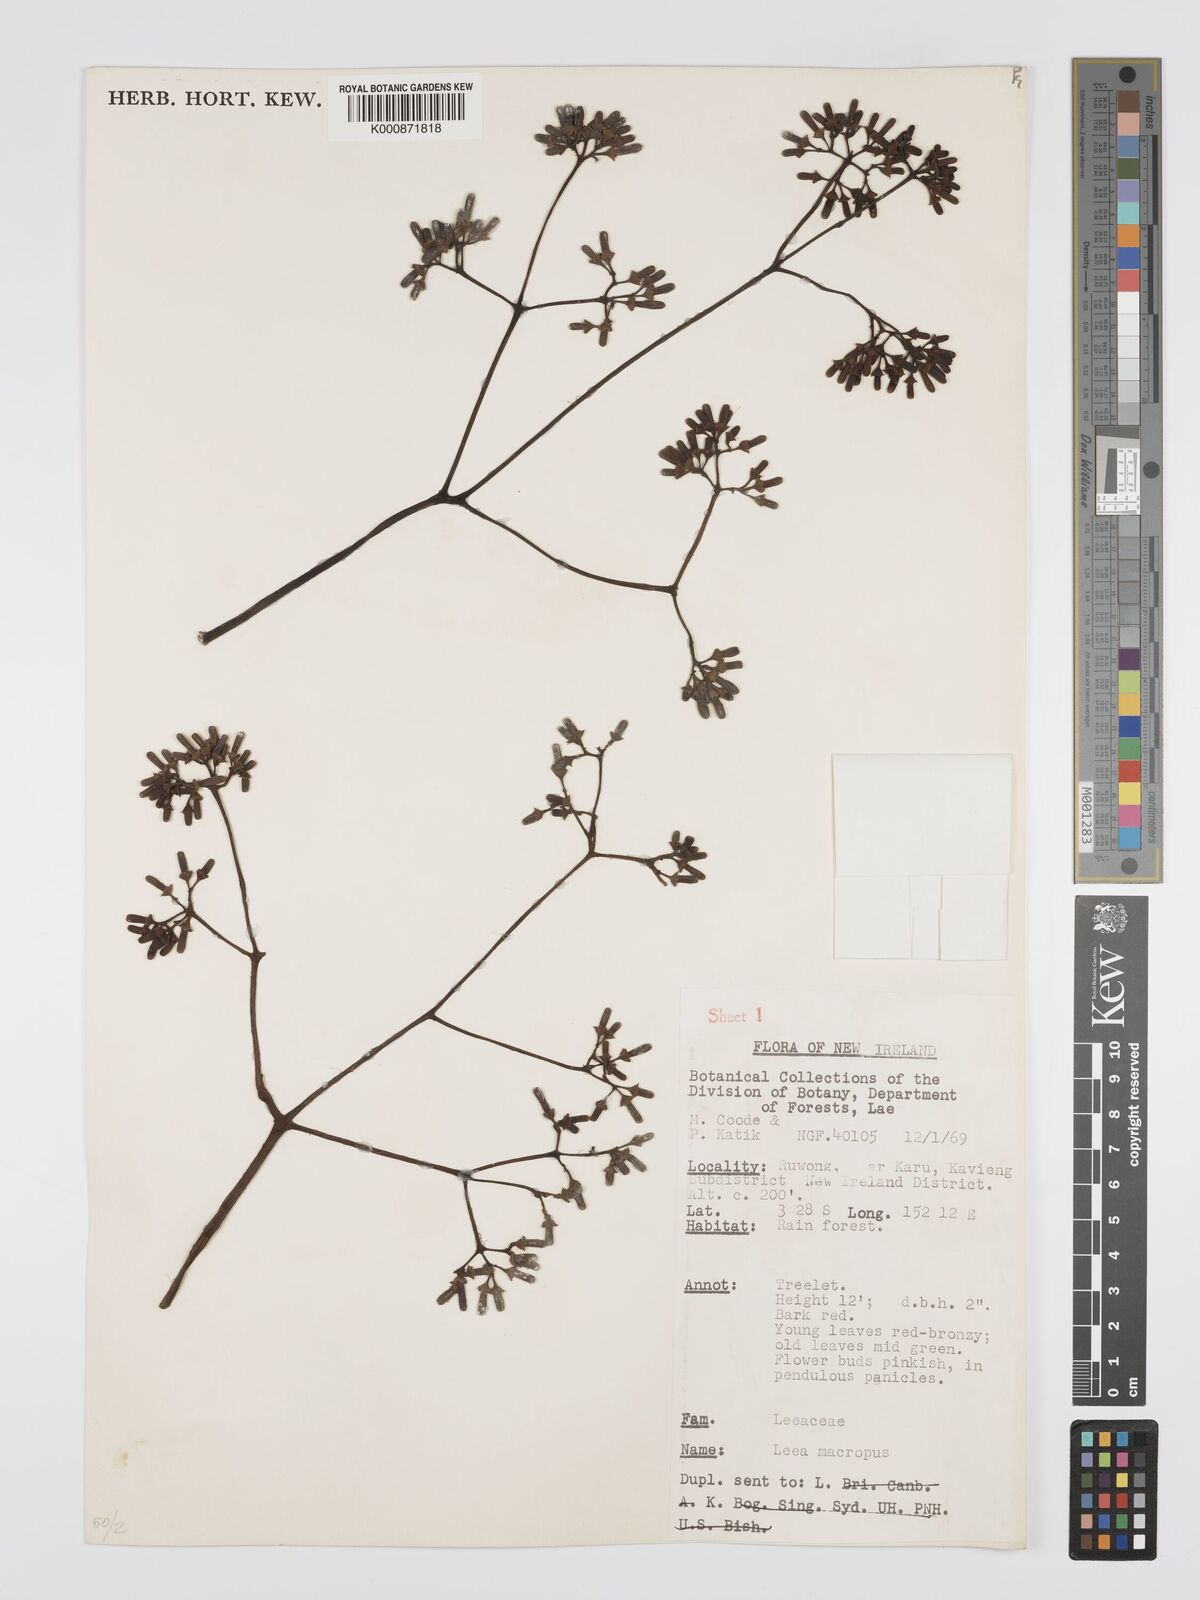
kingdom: Plantae
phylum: Tracheophyta
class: Magnoliopsida
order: Vitales
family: Vitaceae
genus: Leea
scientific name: Leea macropus
